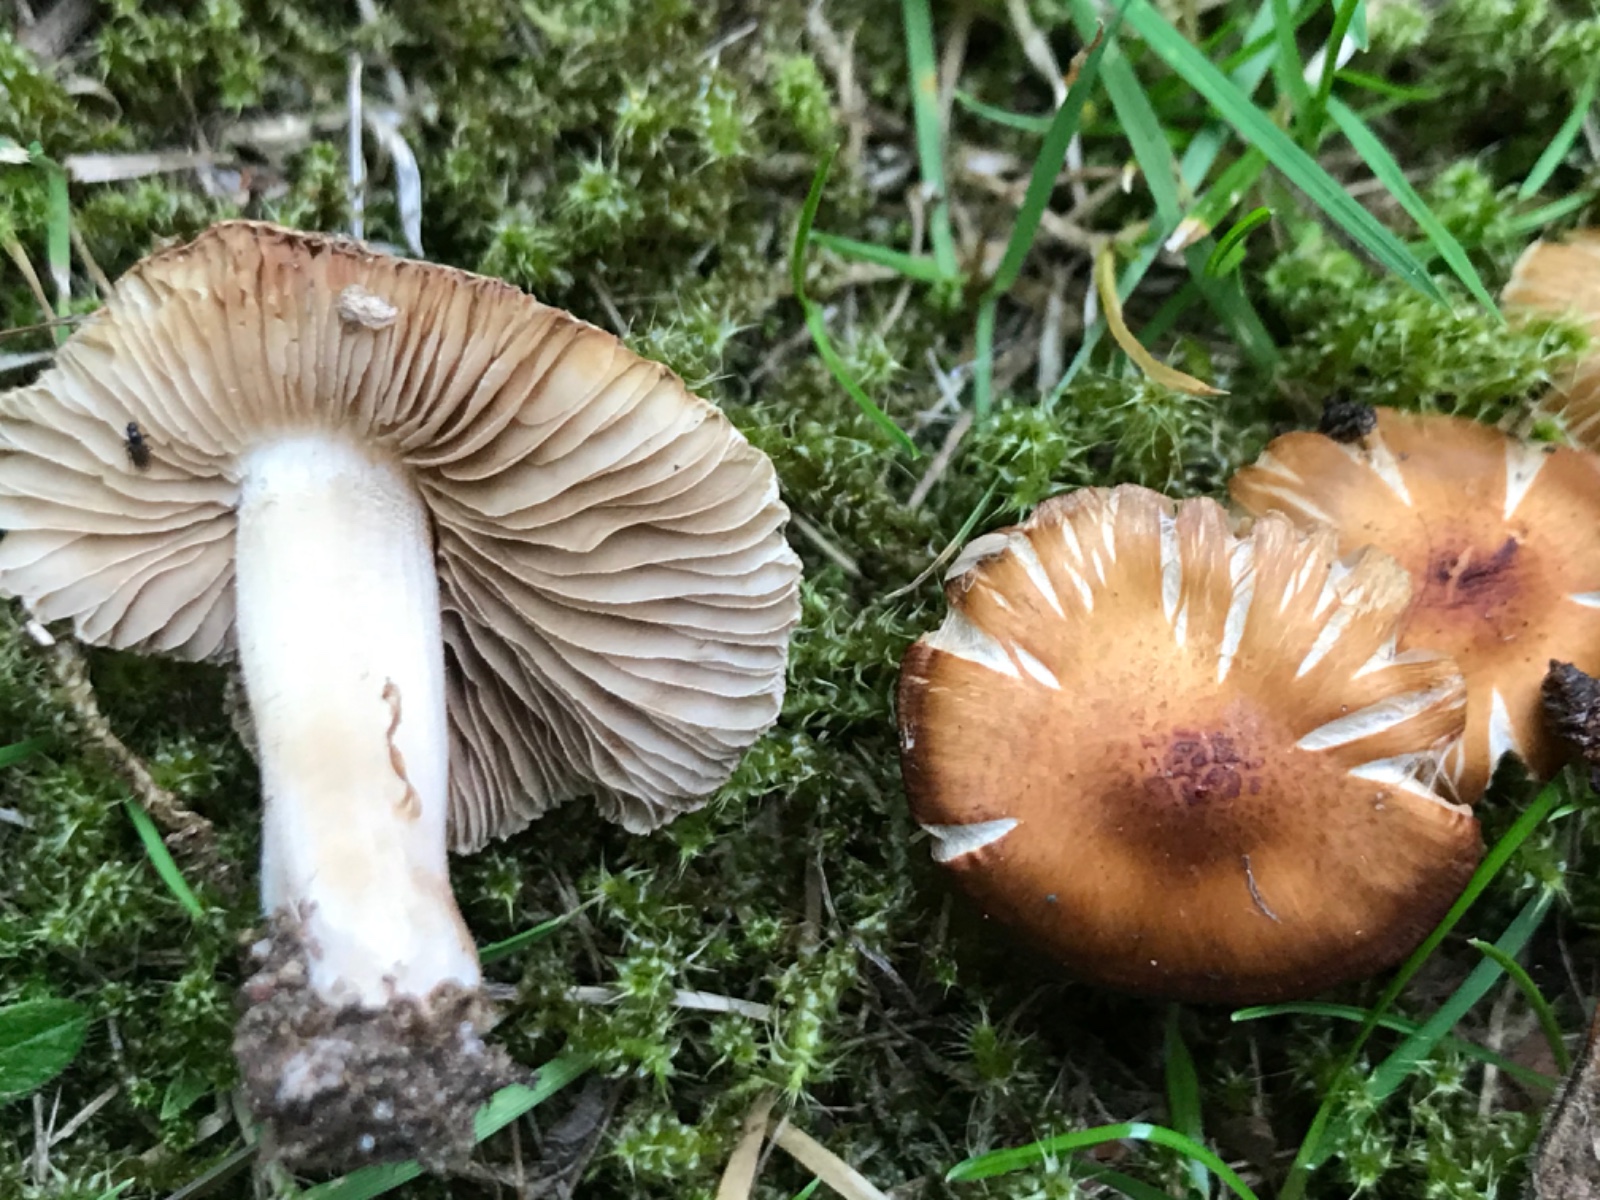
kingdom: Fungi
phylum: Basidiomycota
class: Agaricomycetes
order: Agaricales
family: Inocybaceae
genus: Inocybe
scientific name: Inocybe
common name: trævlhat
